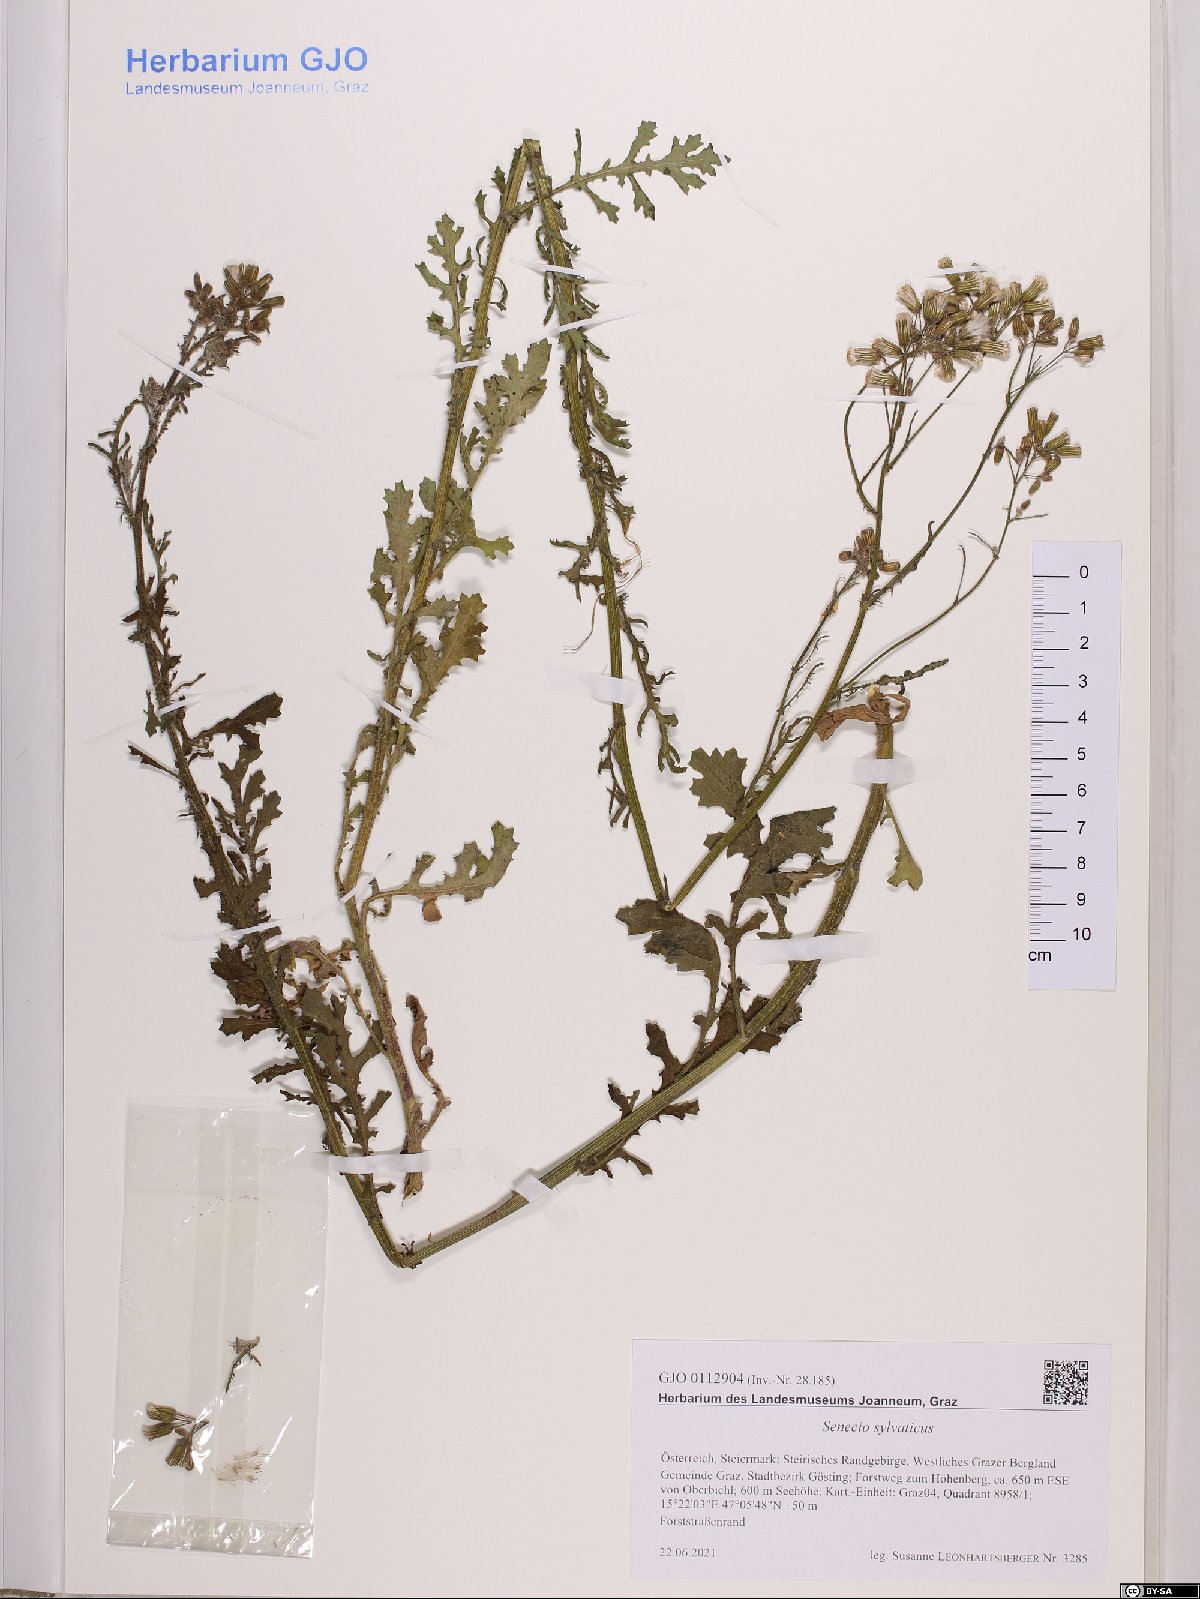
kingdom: Plantae
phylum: Tracheophyta
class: Magnoliopsida
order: Asterales
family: Asteraceae
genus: Senecio
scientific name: Senecio sylvaticus
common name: Woodland ragwort
